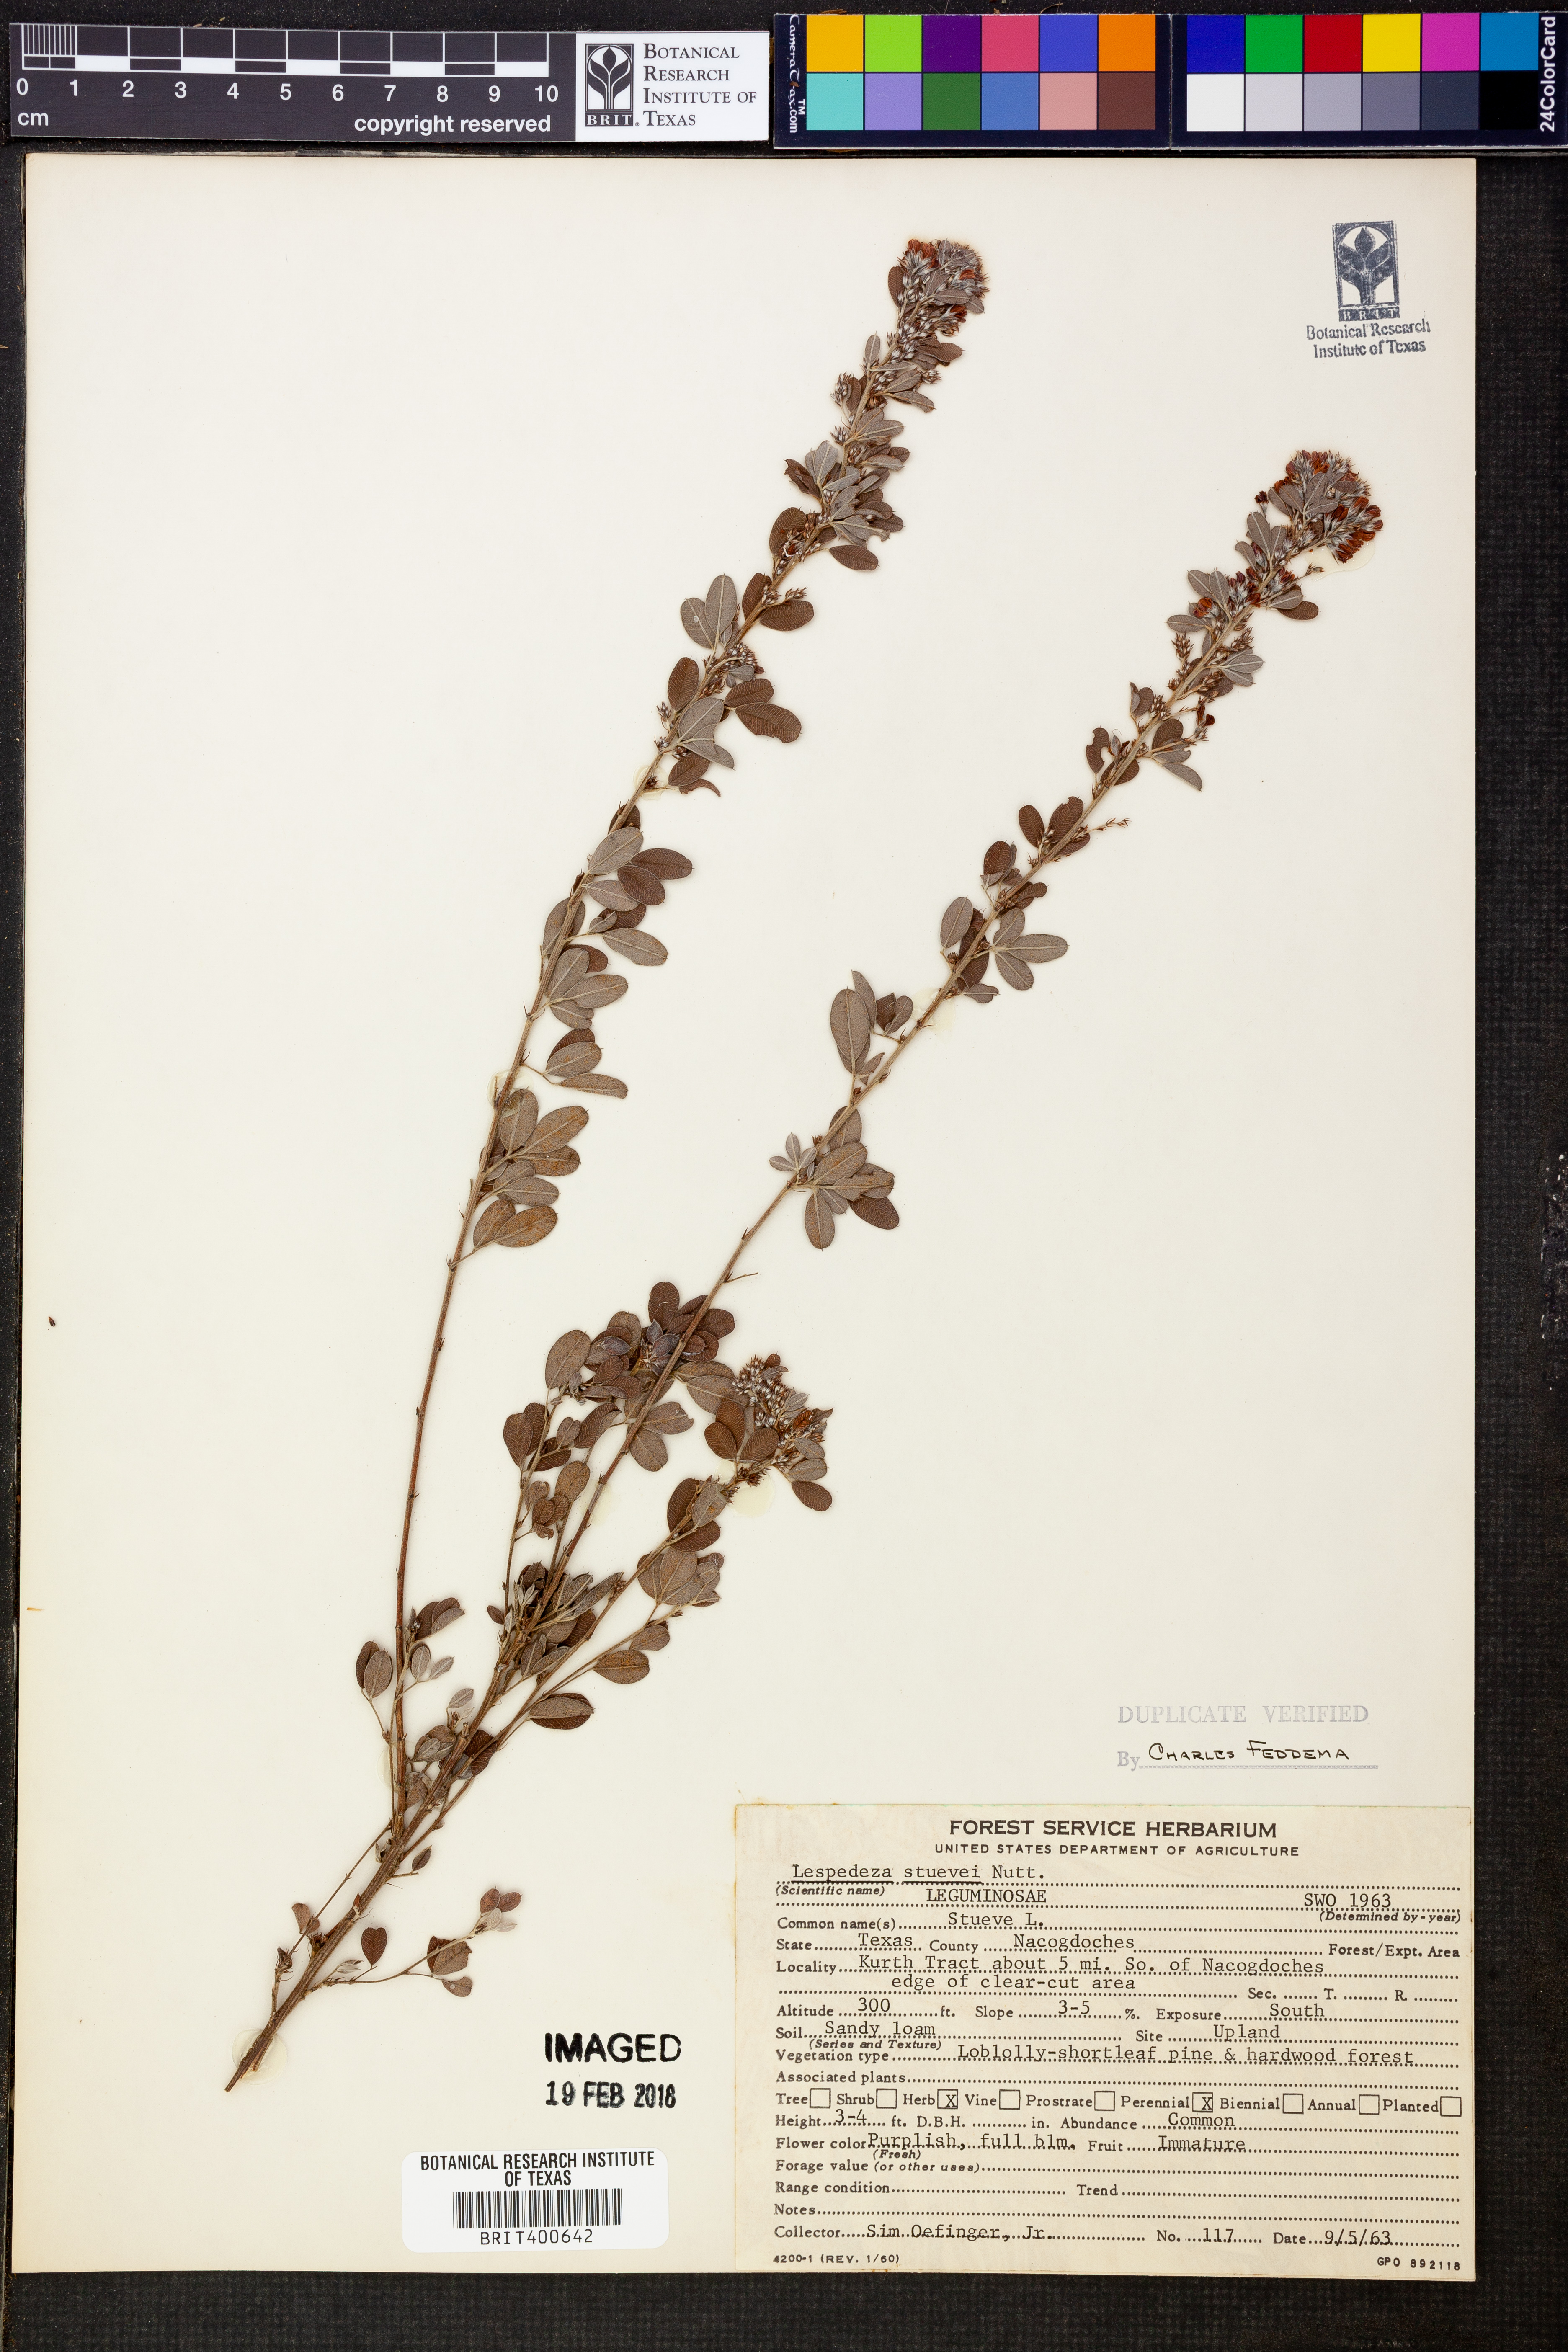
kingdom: Plantae
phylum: Tracheophyta
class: Magnoliopsida
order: Fabales
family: Fabaceae
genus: Lespedeza
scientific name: Lespedeza stuevei
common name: Tall bush-clover
